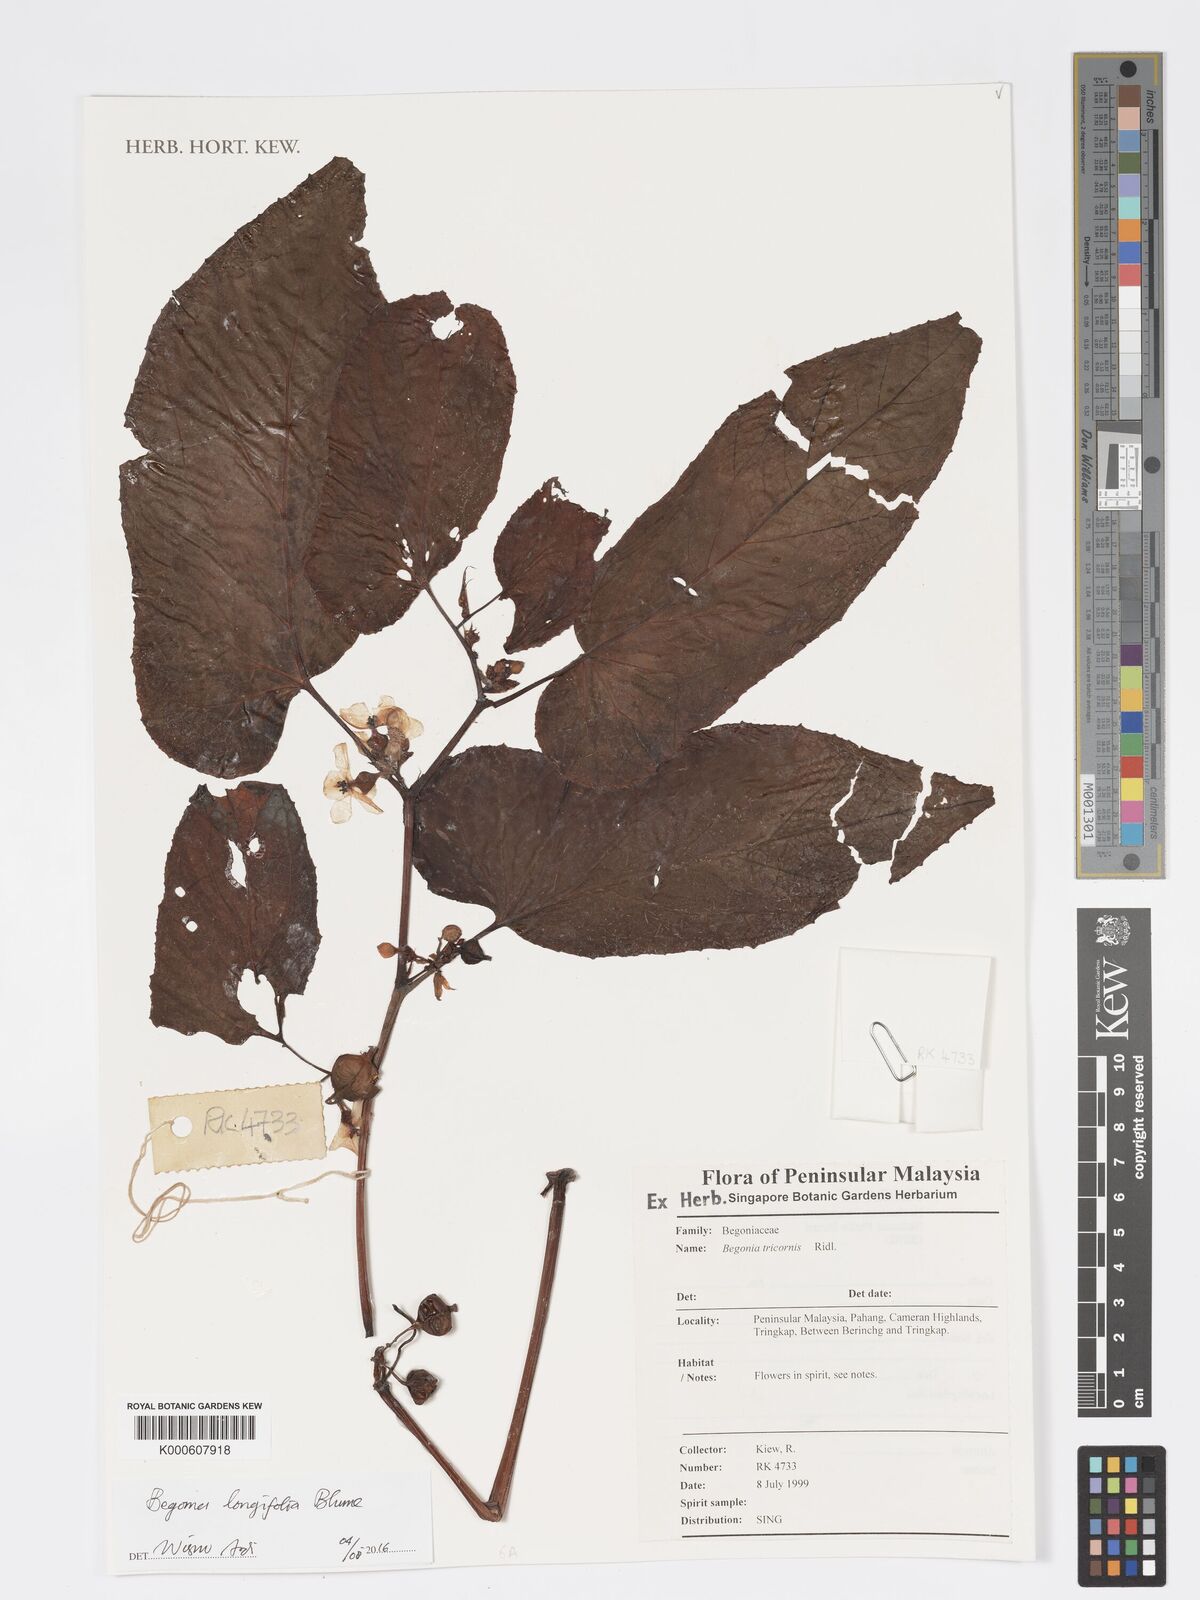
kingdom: Plantae
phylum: Tracheophyta
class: Magnoliopsida
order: Cucurbitales
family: Begoniaceae
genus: Begonia
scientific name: Begonia longifolia
